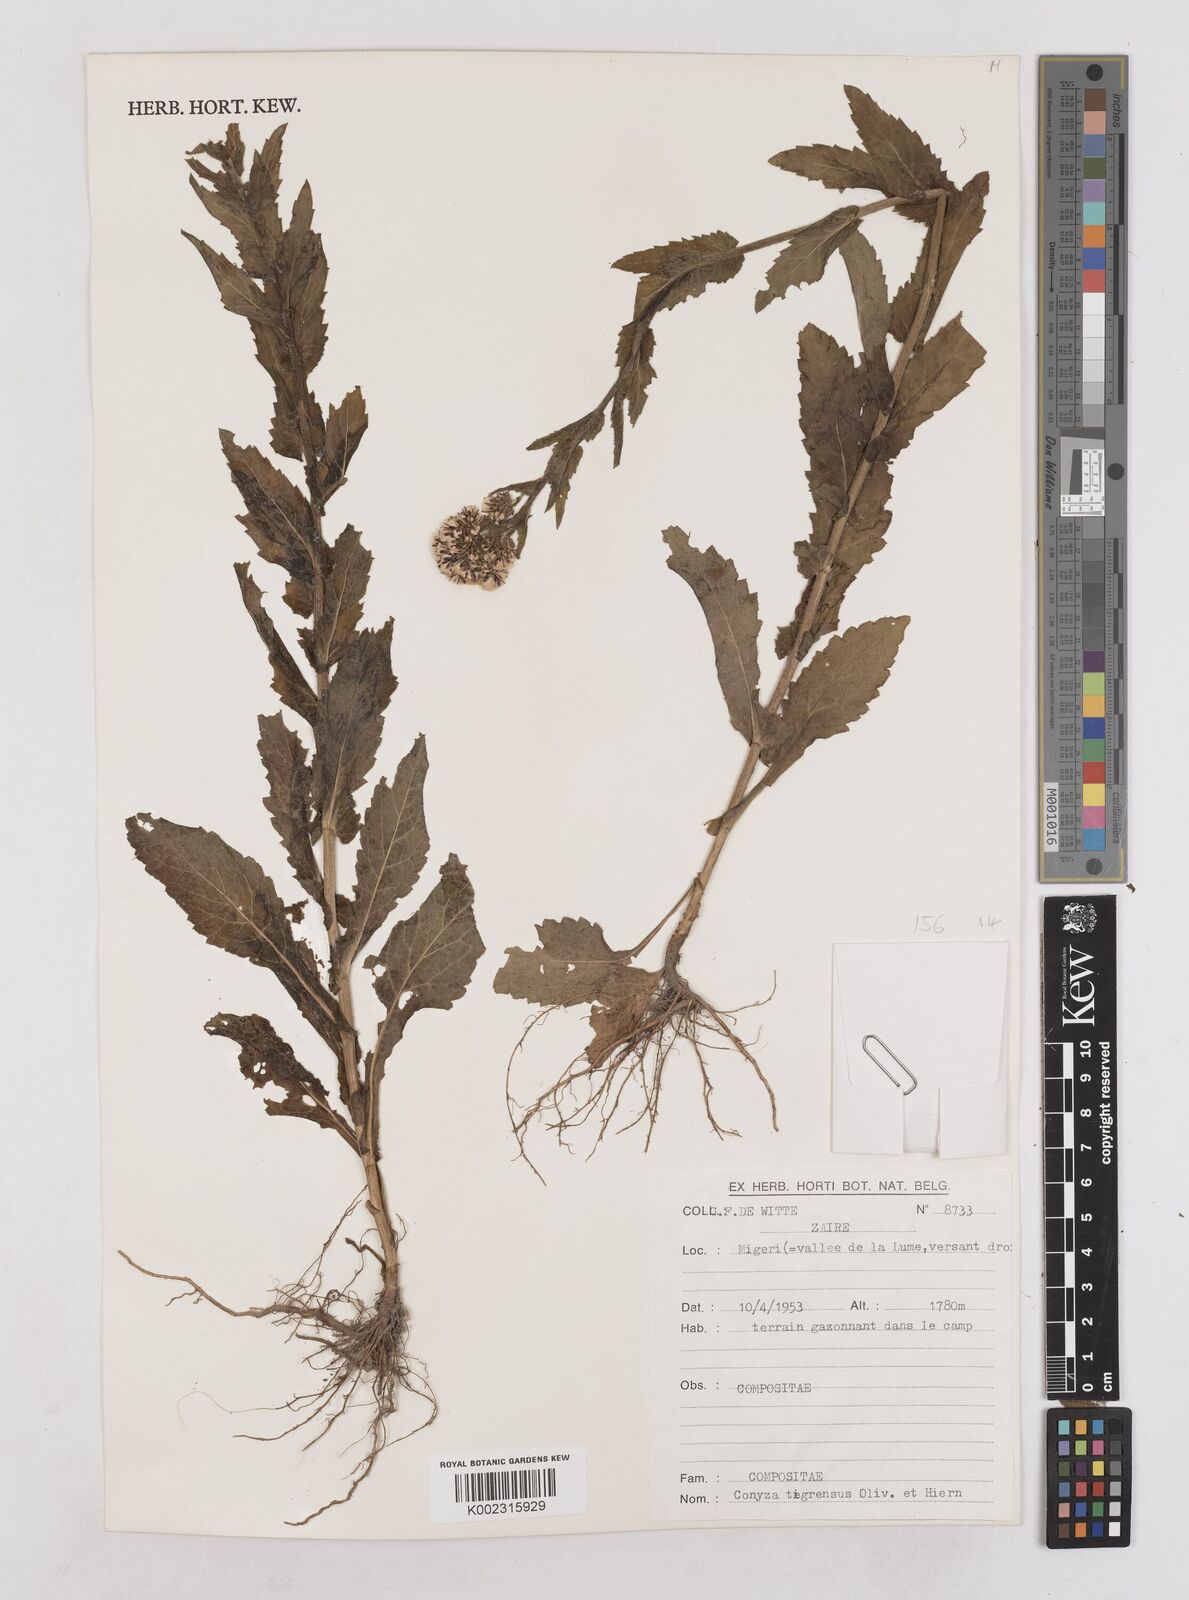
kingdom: Plantae
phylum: Tracheophyta
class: Magnoliopsida
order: Asterales
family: Asteraceae
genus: Eschenbachia
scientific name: Eschenbachia tigrensis
